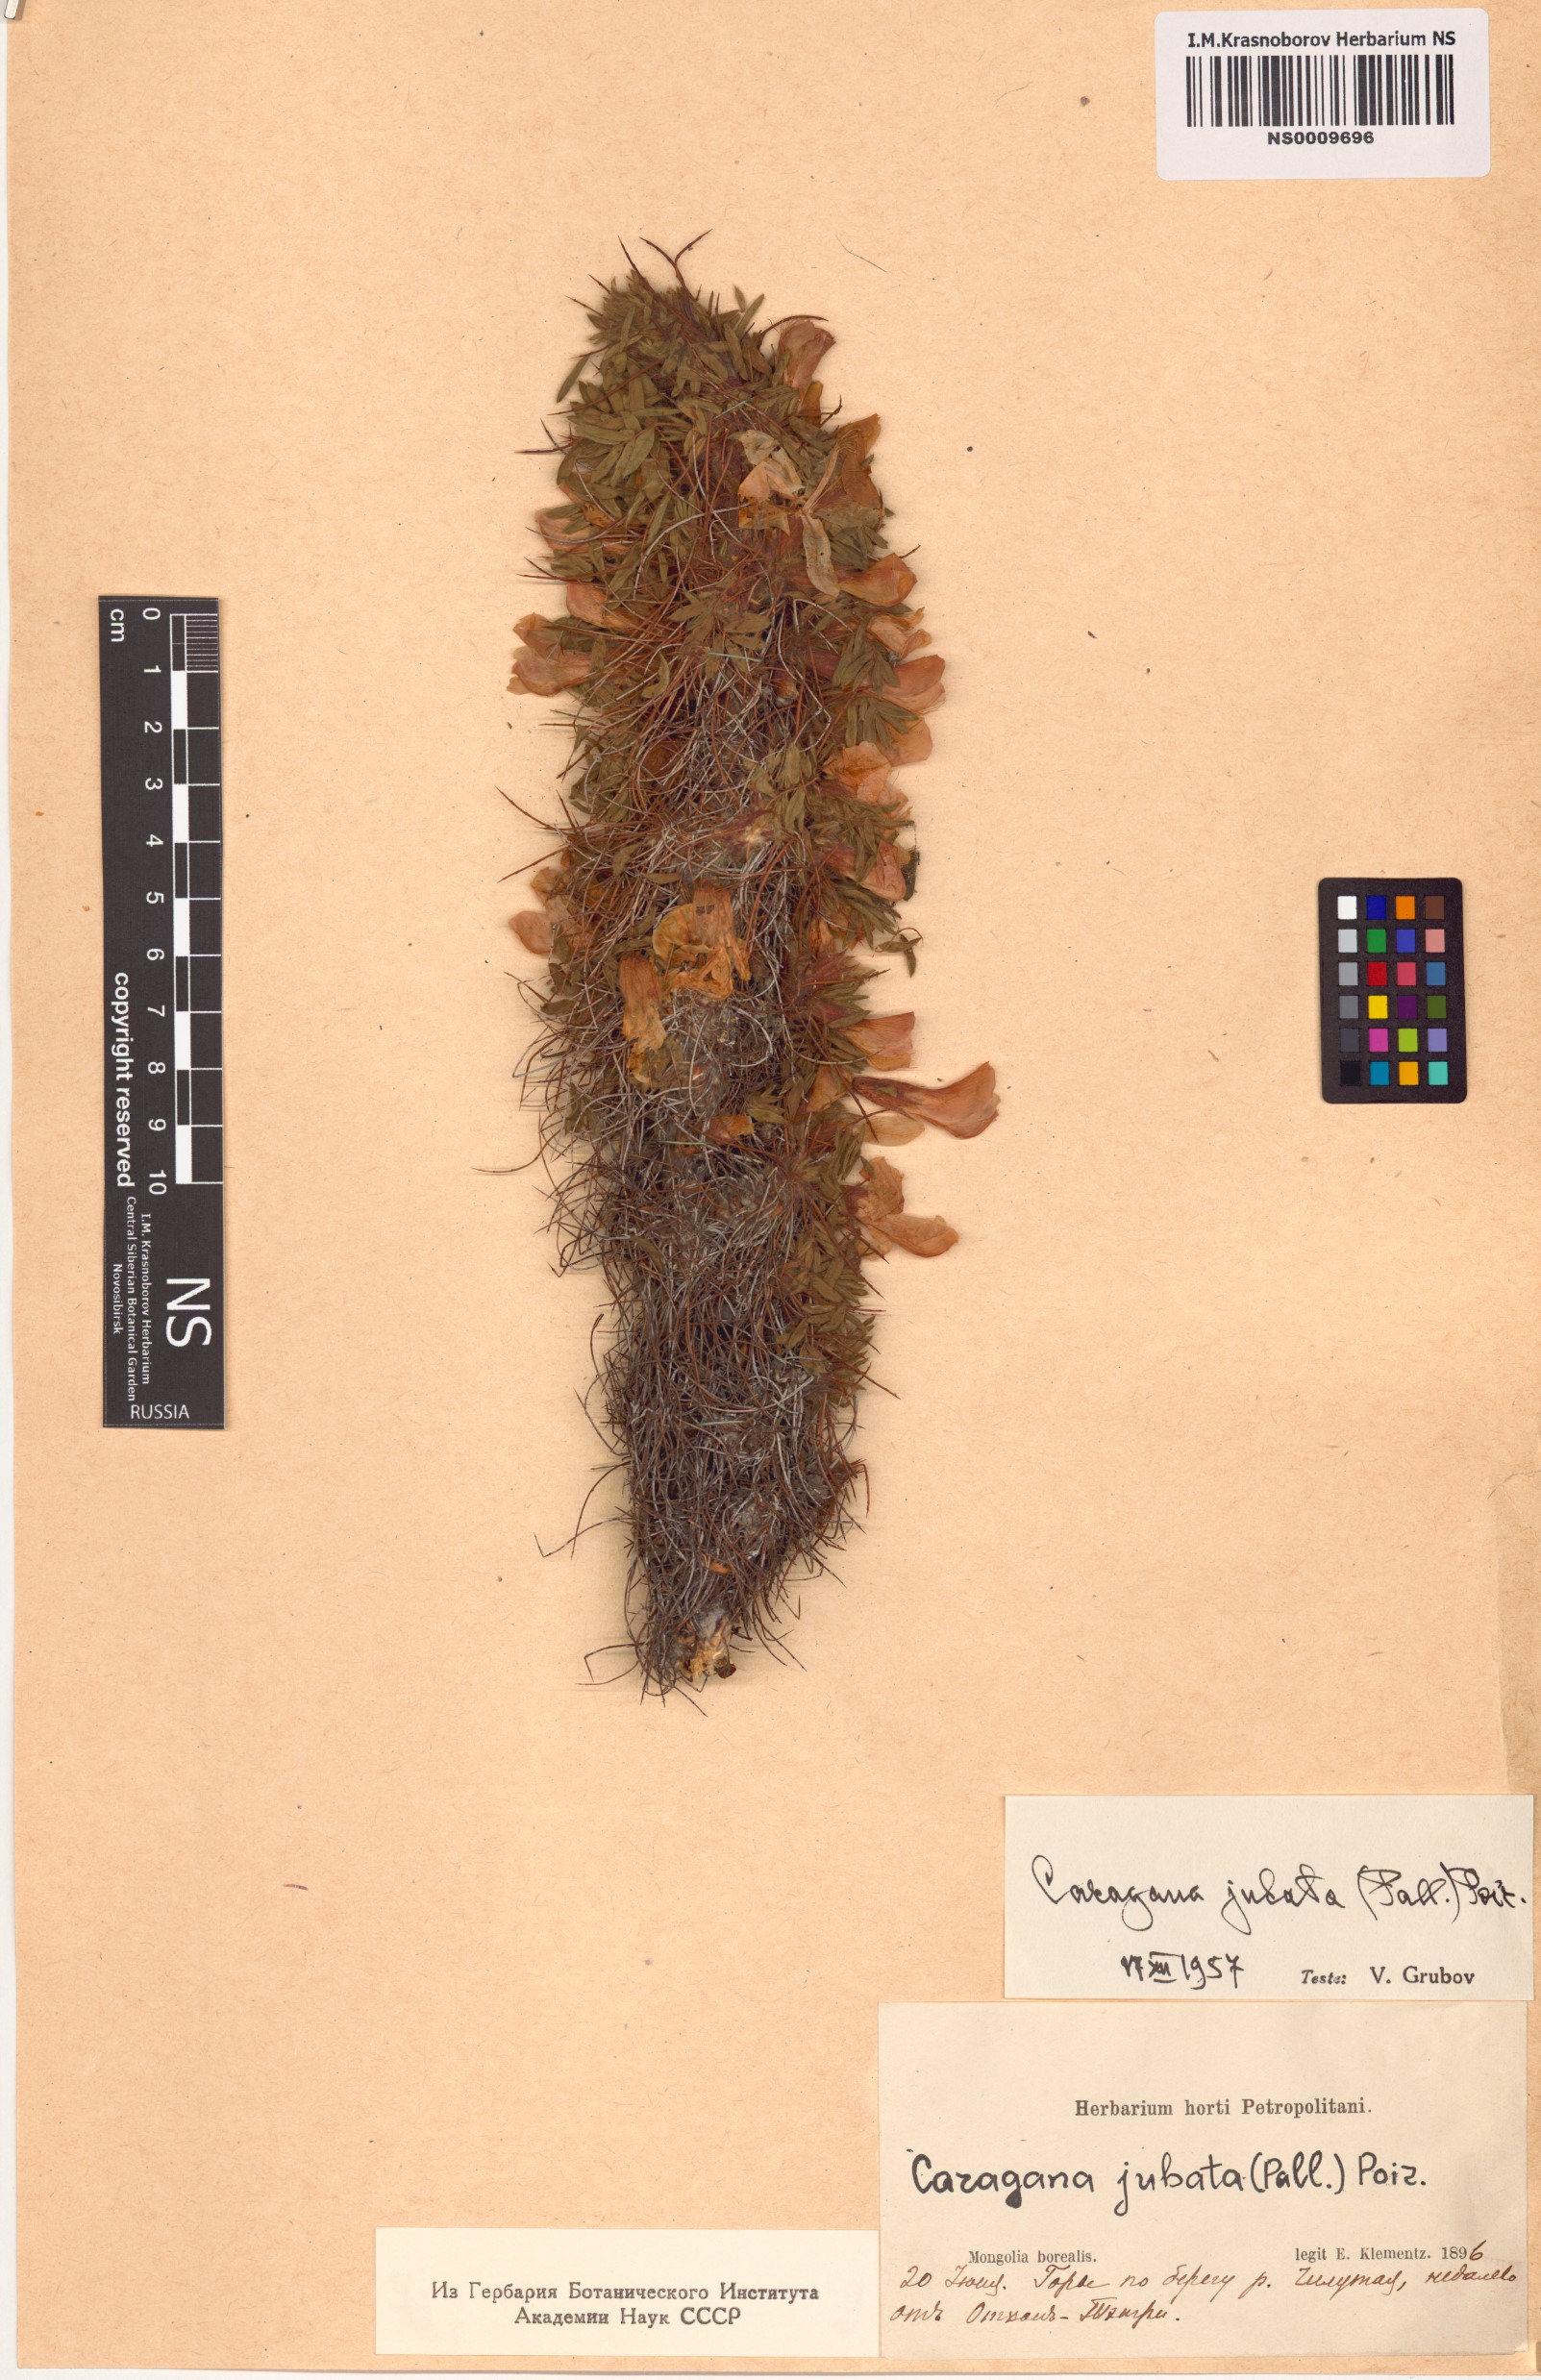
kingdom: Plantae
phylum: Tracheophyta
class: Magnoliopsida
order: Fabales
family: Fabaceae
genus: Caragana
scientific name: Caragana jubata
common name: Shag-spine peashrub
